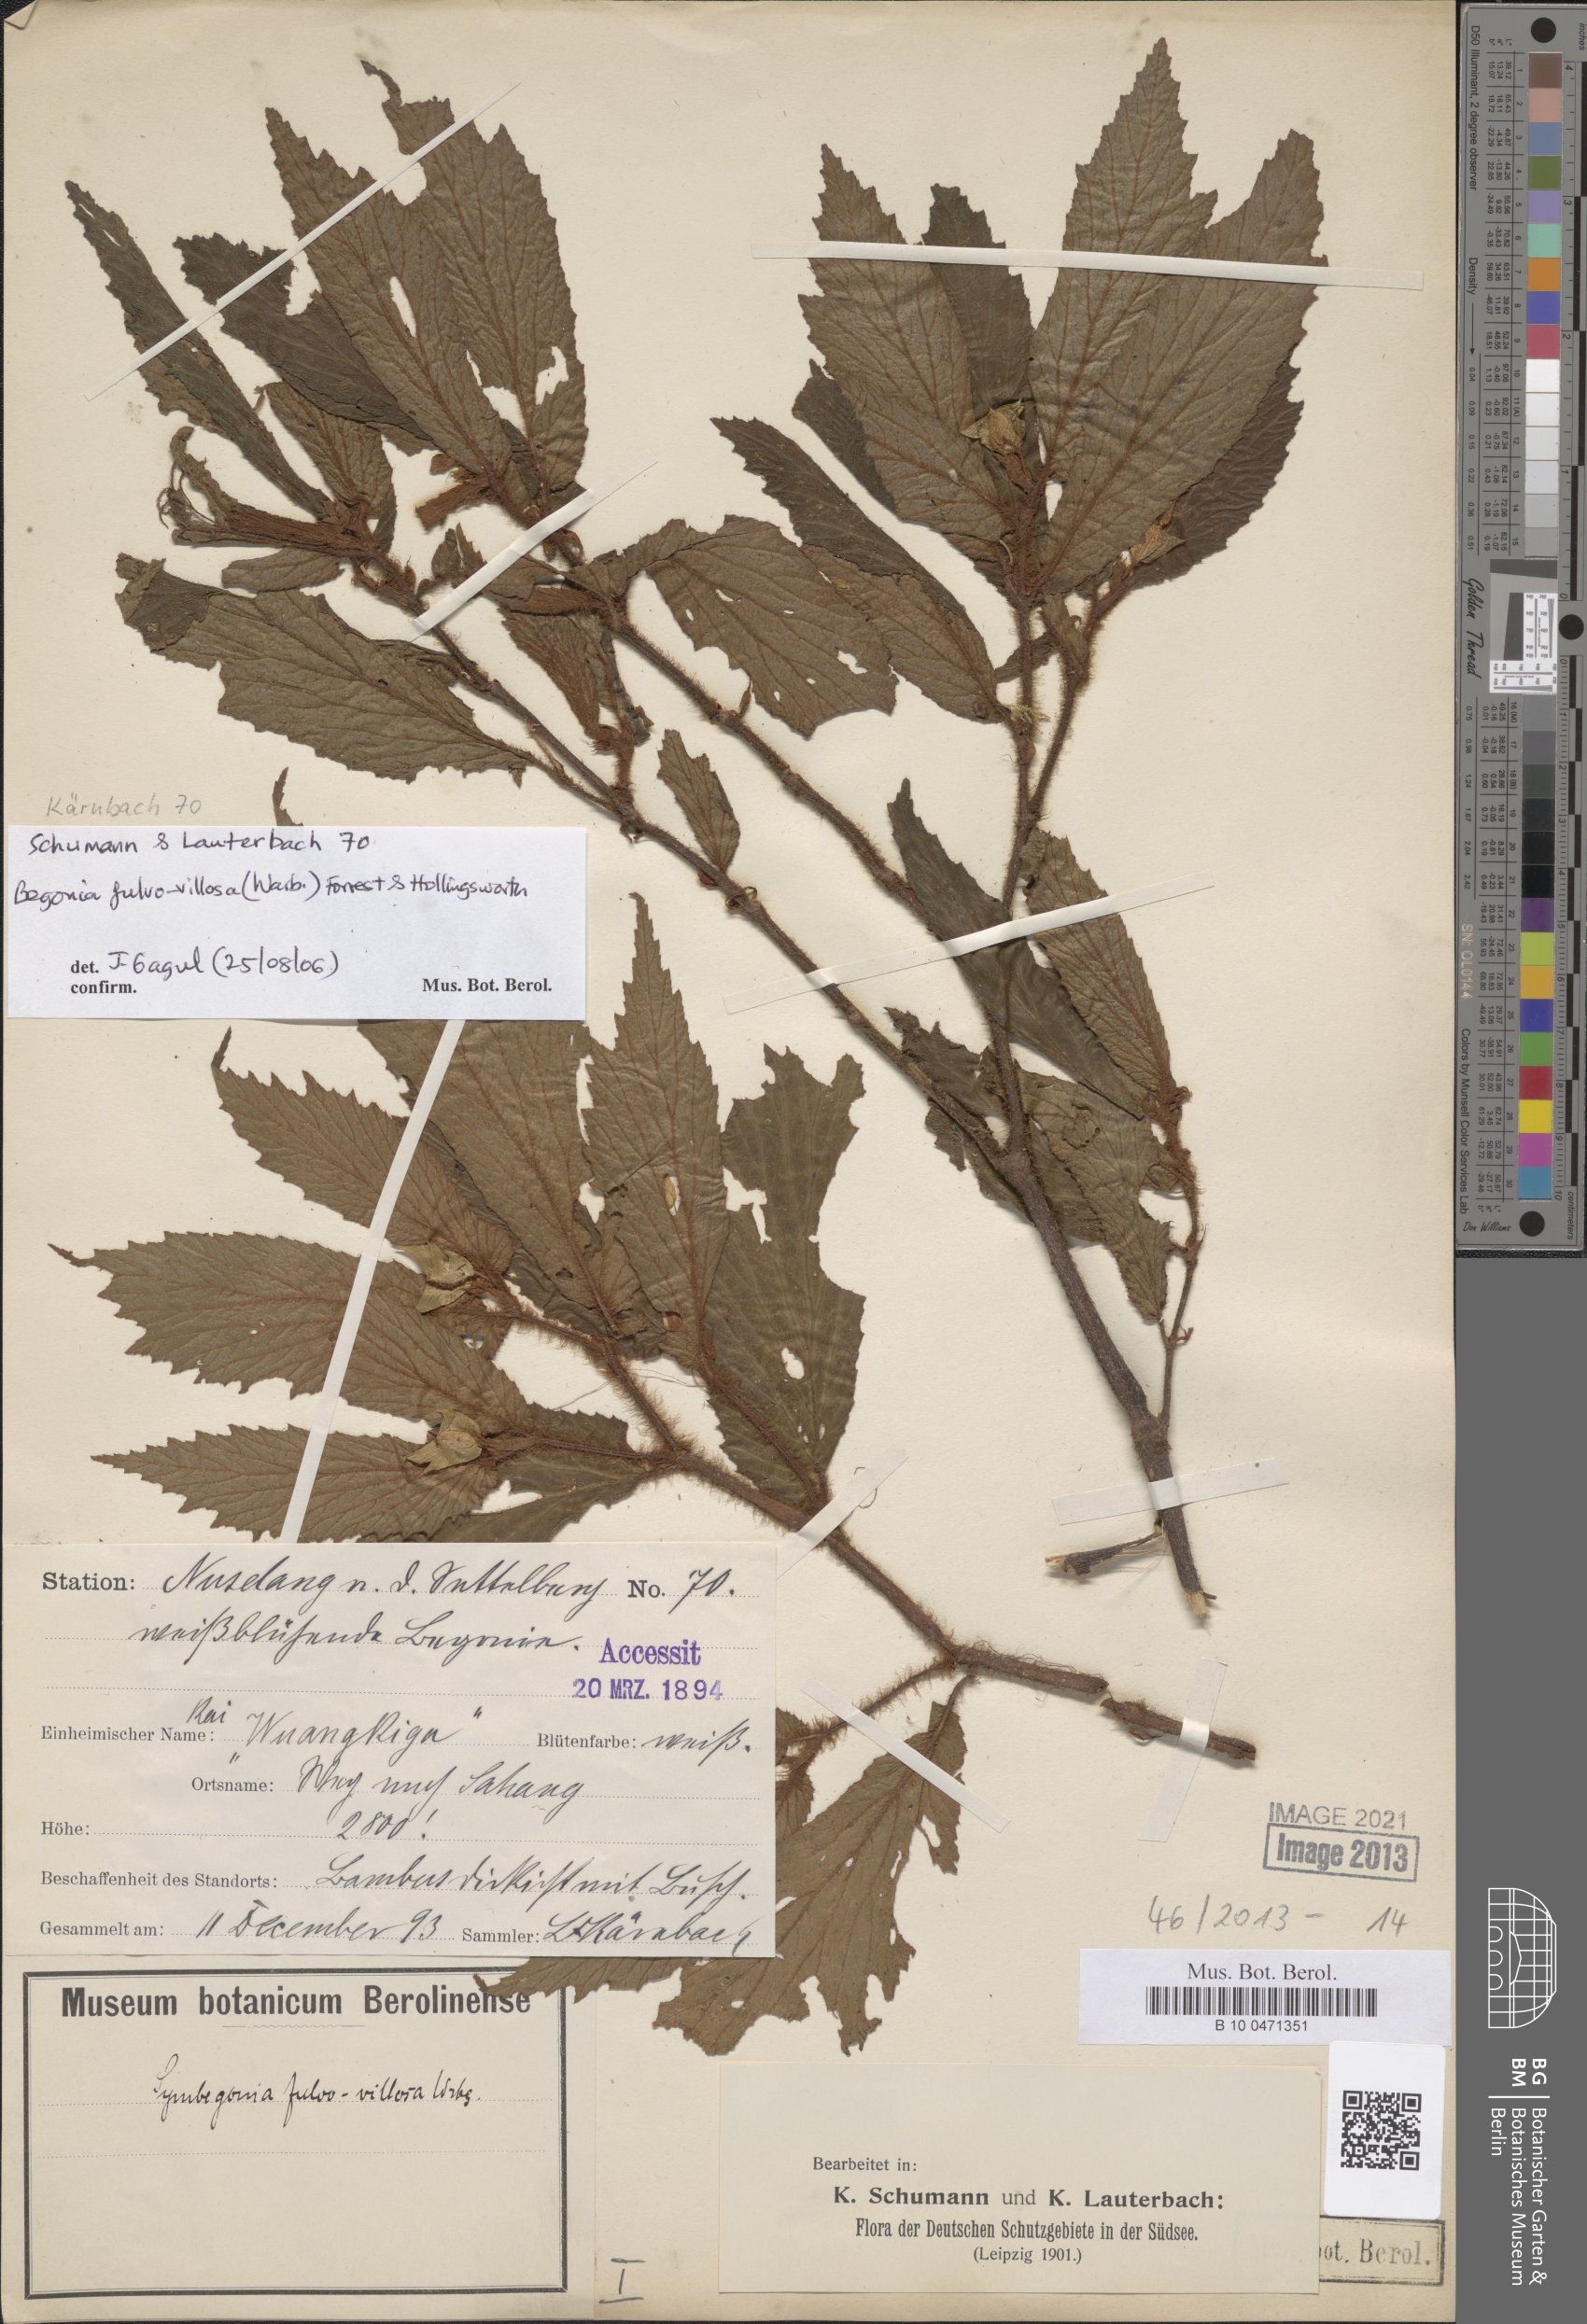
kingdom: Plantae
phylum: Tracheophyta
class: Magnoliopsida
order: Cucurbitales
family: Begoniaceae
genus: Begonia
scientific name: Begonia fulvovillosa
